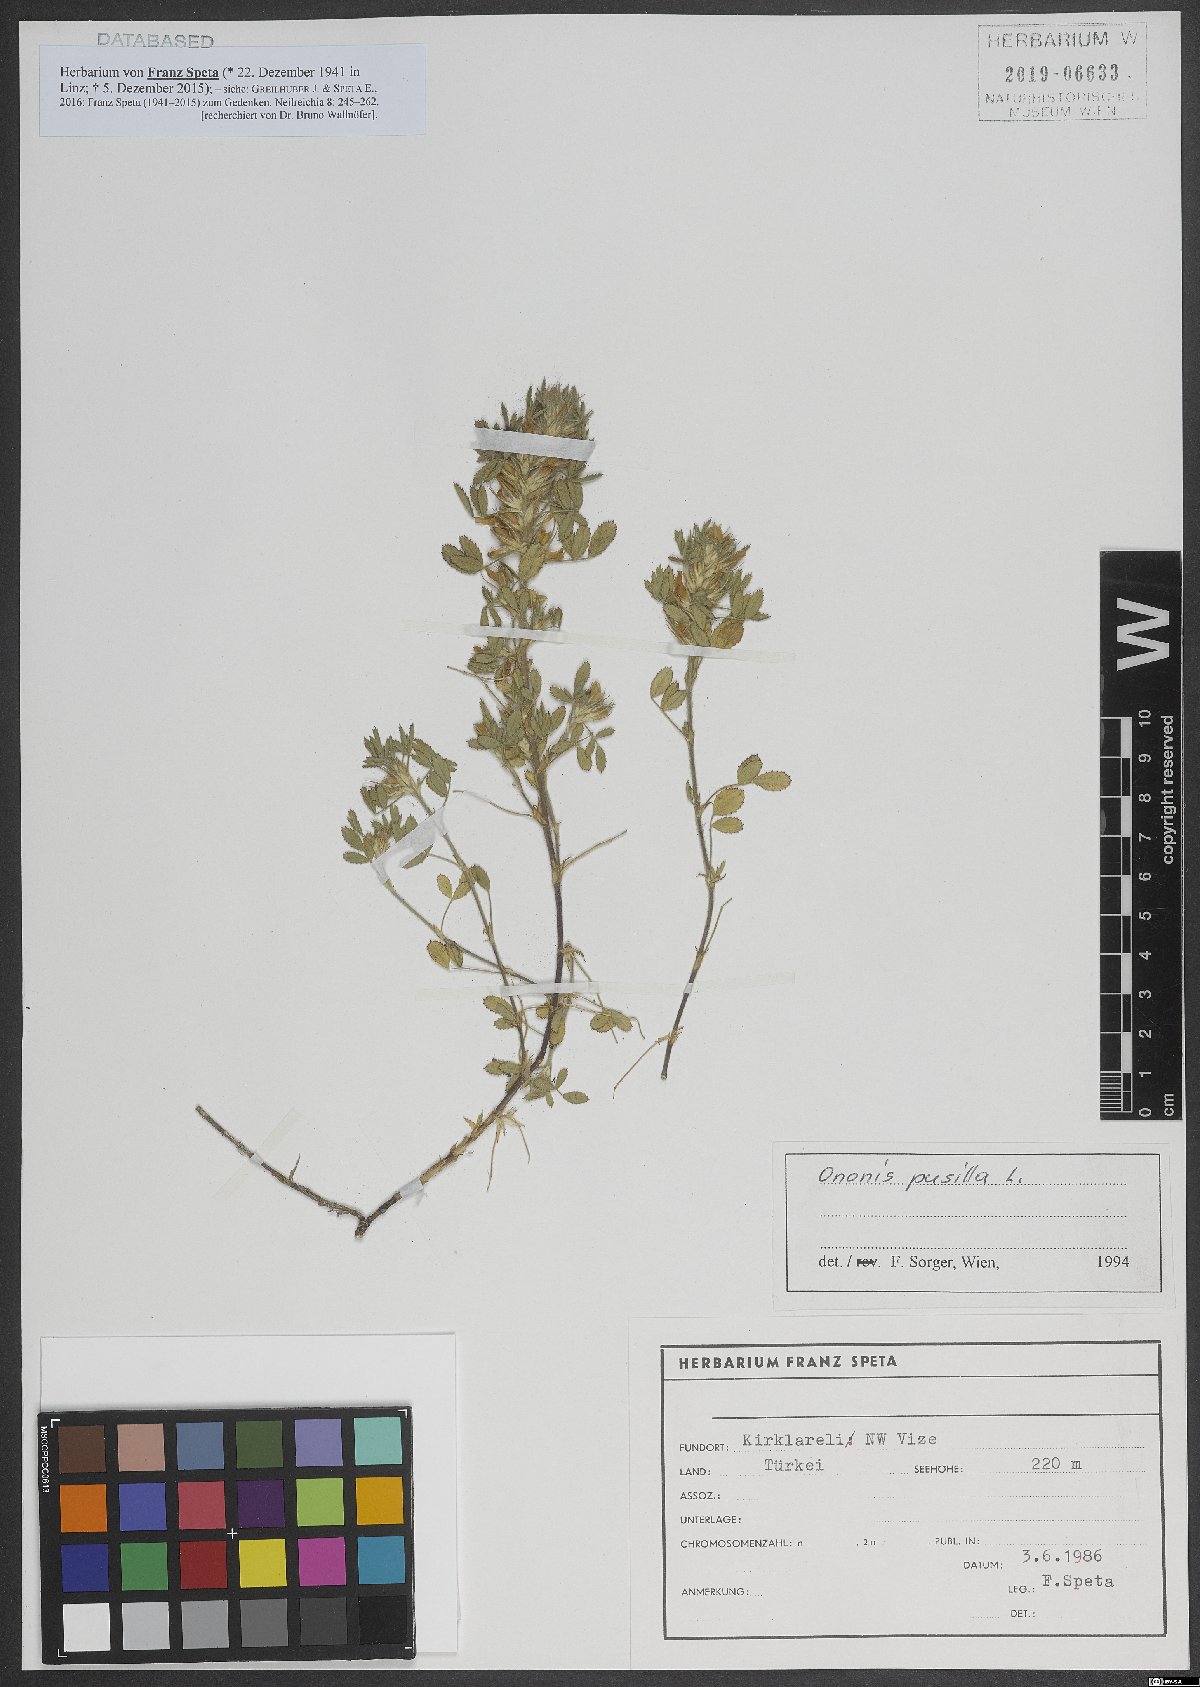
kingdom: Plantae
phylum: Tracheophyta
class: Magnoliopsida
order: Fabales
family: Fabaceae
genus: Ononis
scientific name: Ononis pusilla
